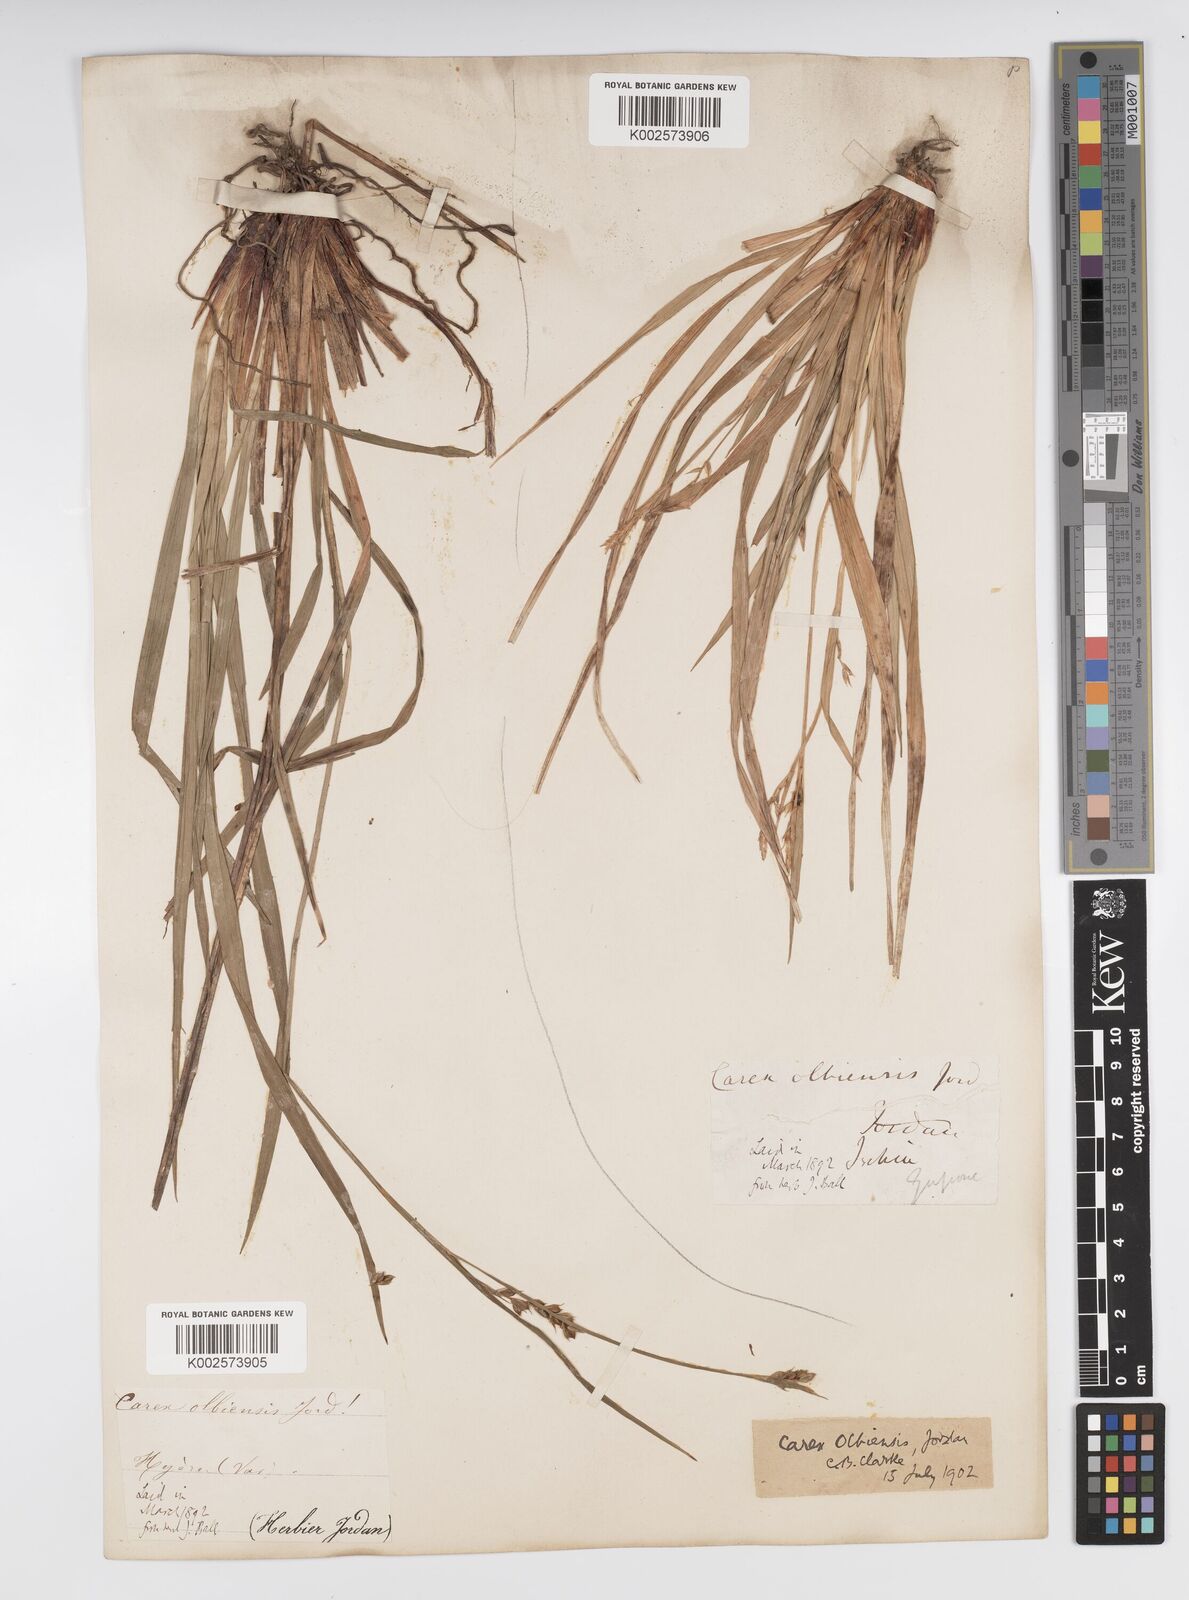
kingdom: Plantae
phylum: Tracheophyta
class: Liliopsida
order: Poales
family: Cyperaceae
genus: Carex
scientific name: Carex olbiensis
